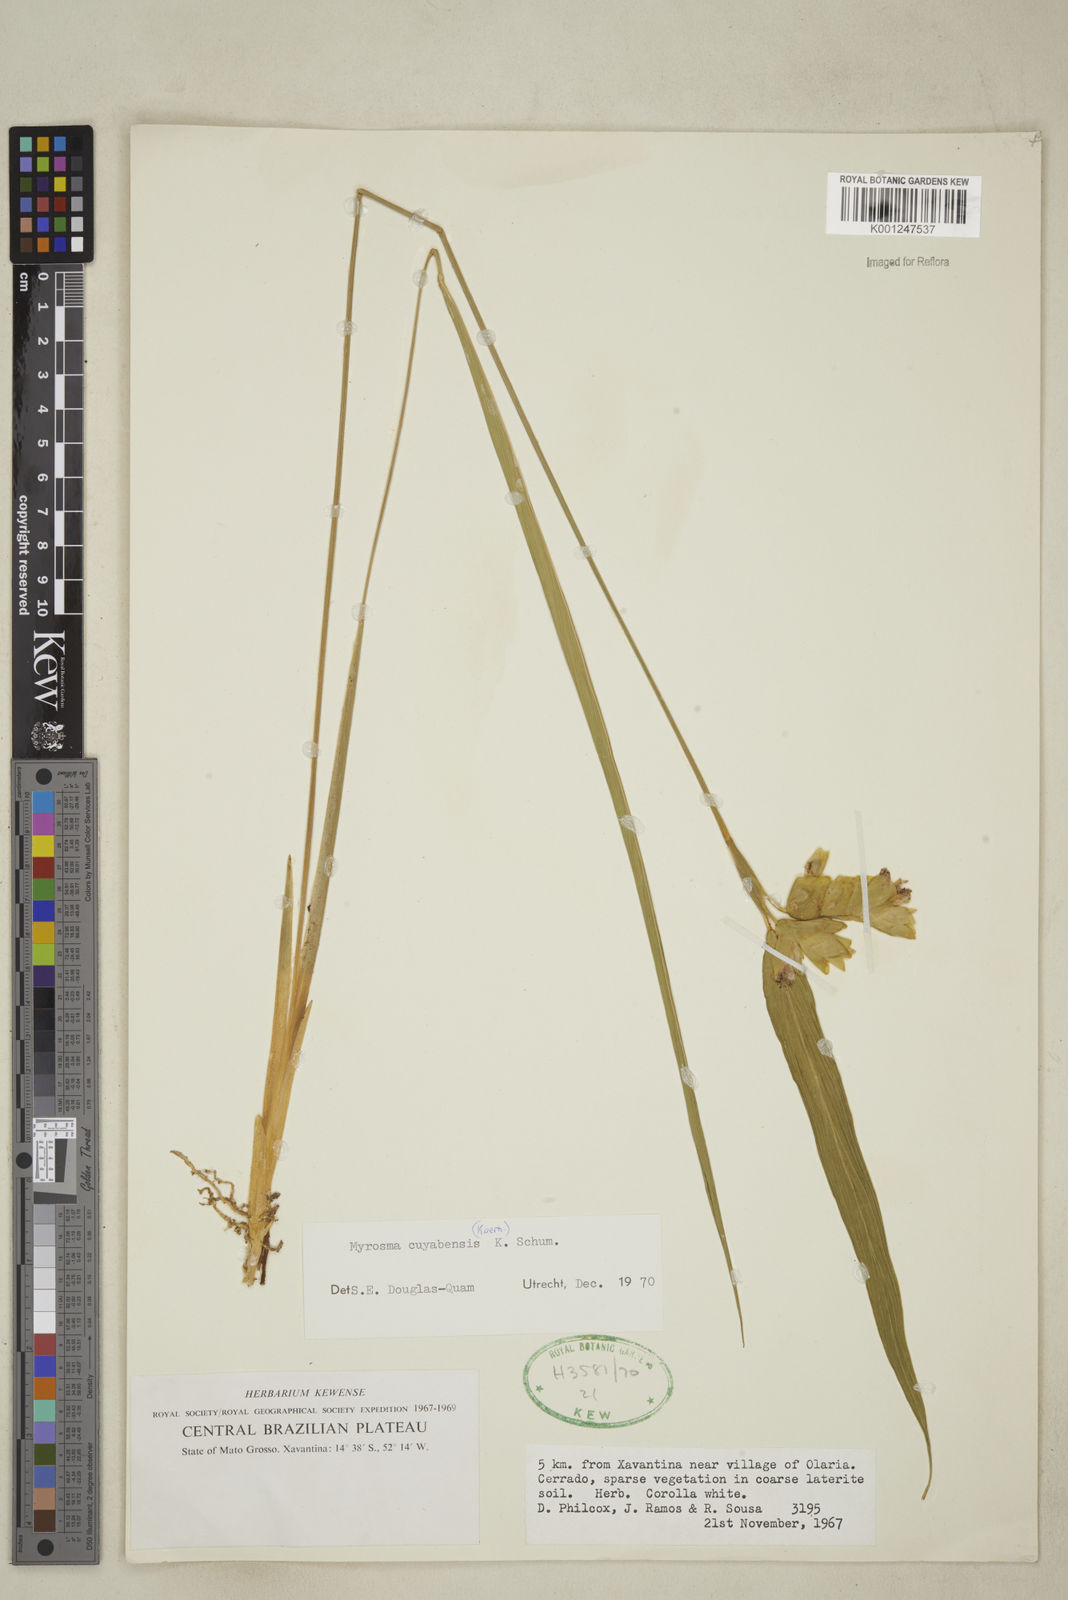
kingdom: Plantae
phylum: Tracheophyta
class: Liliopsida
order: Zingiberales
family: Marantaceae
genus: Myrosma
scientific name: Myrosma cannifolia
